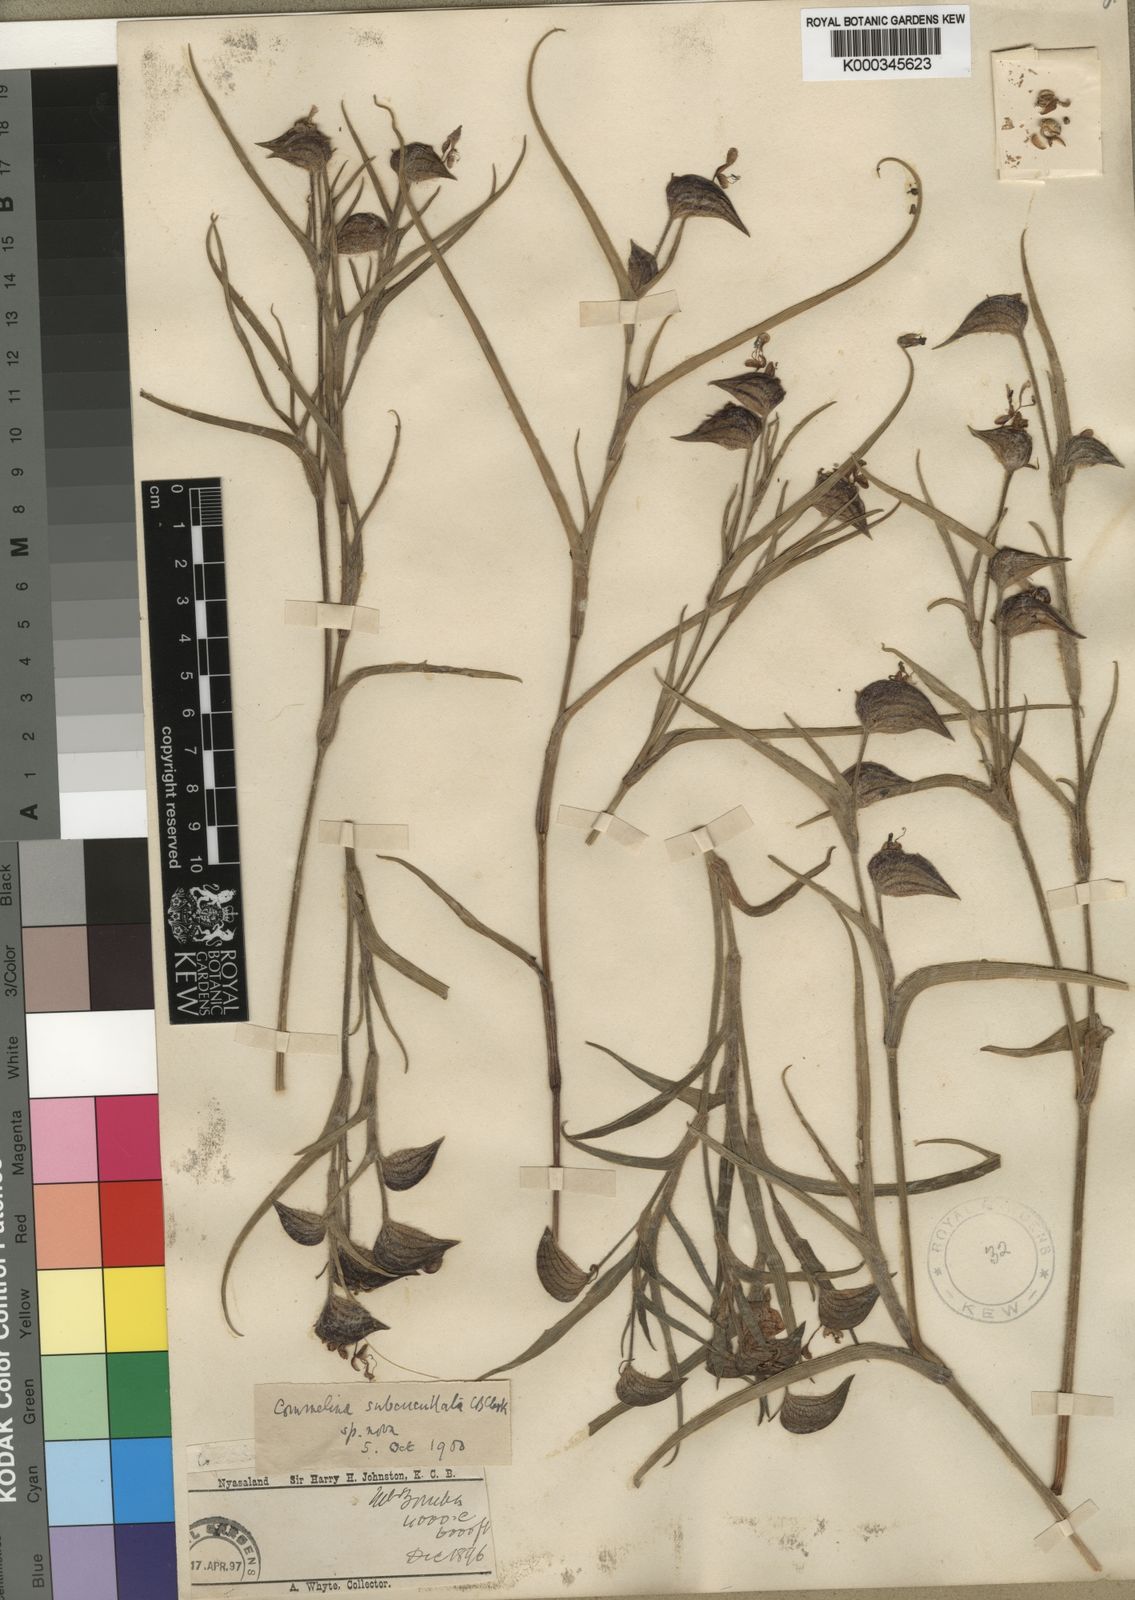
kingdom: Plantae
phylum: Tracheophyta
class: Liliopsida
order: Commelinales
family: Commelinaceae
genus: Commelina
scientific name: Commelina subcucullata
